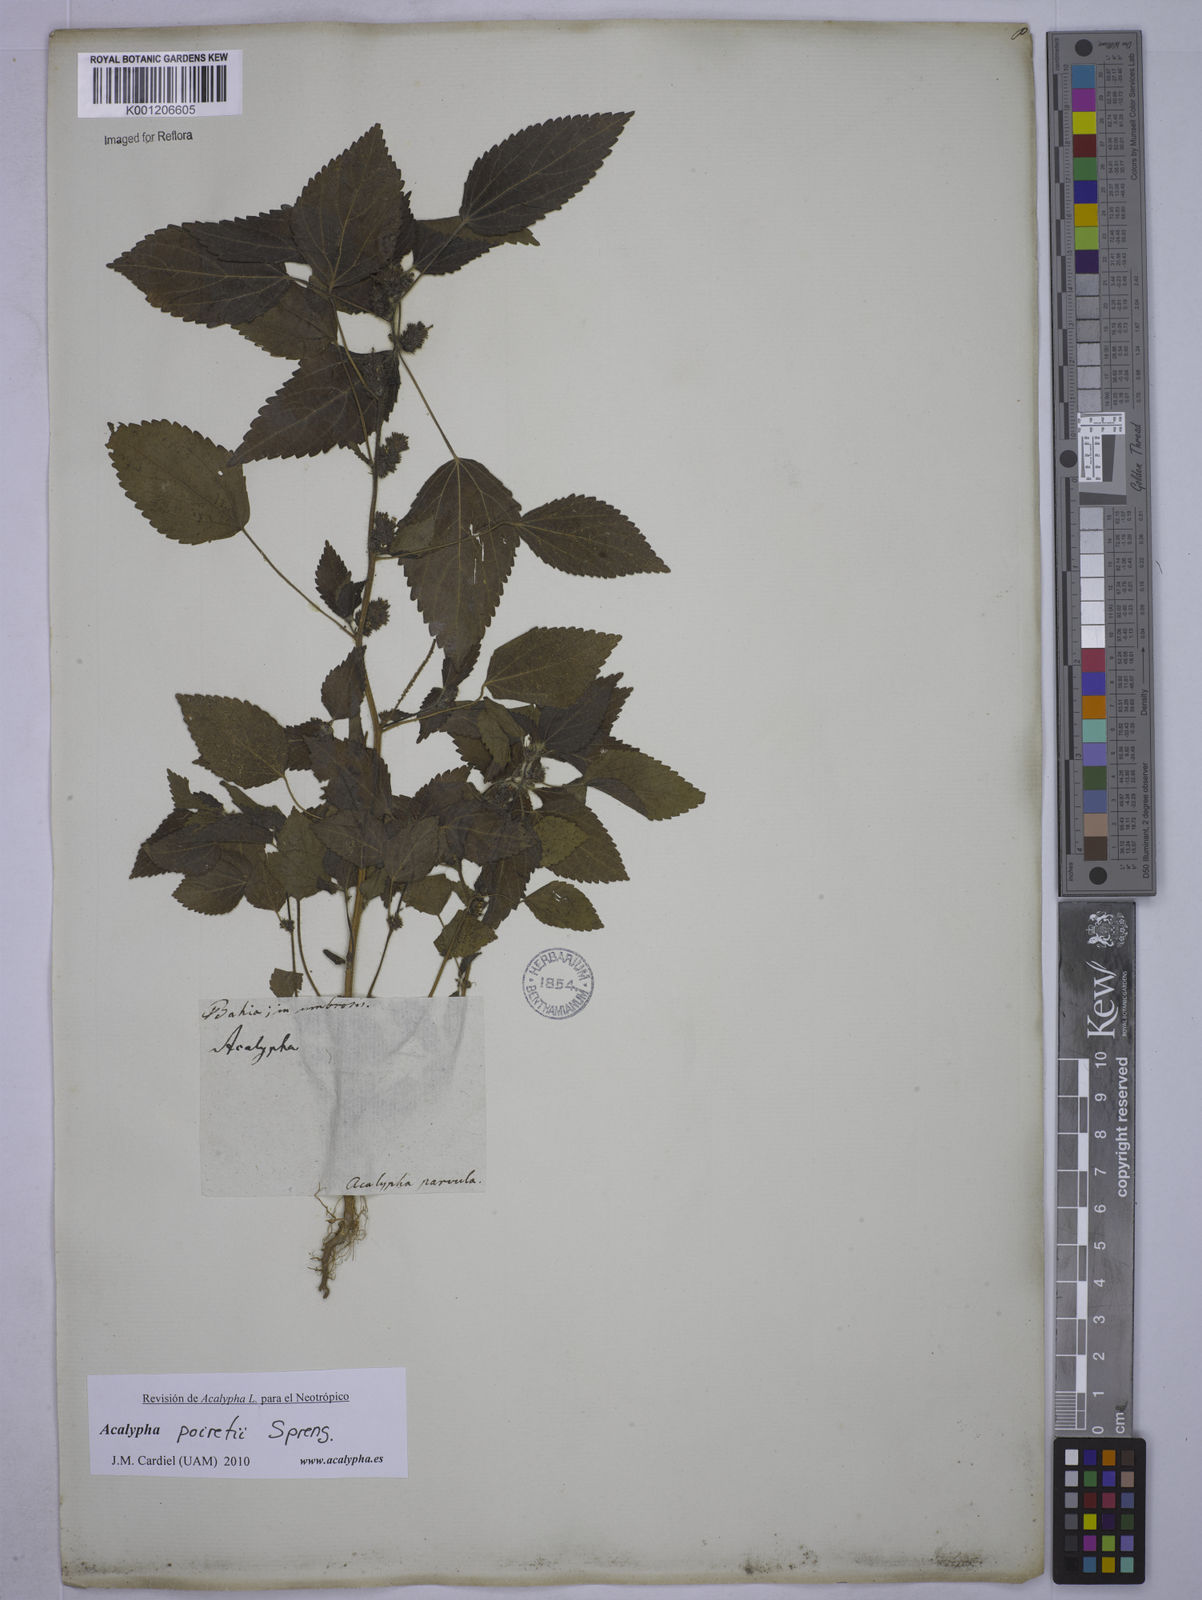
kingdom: Plantae
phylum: Tracheophyta
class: Magnoliopsida
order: Malpighiales
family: Euphorbiaceae
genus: Acalypha
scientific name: Acalypha poiretii
